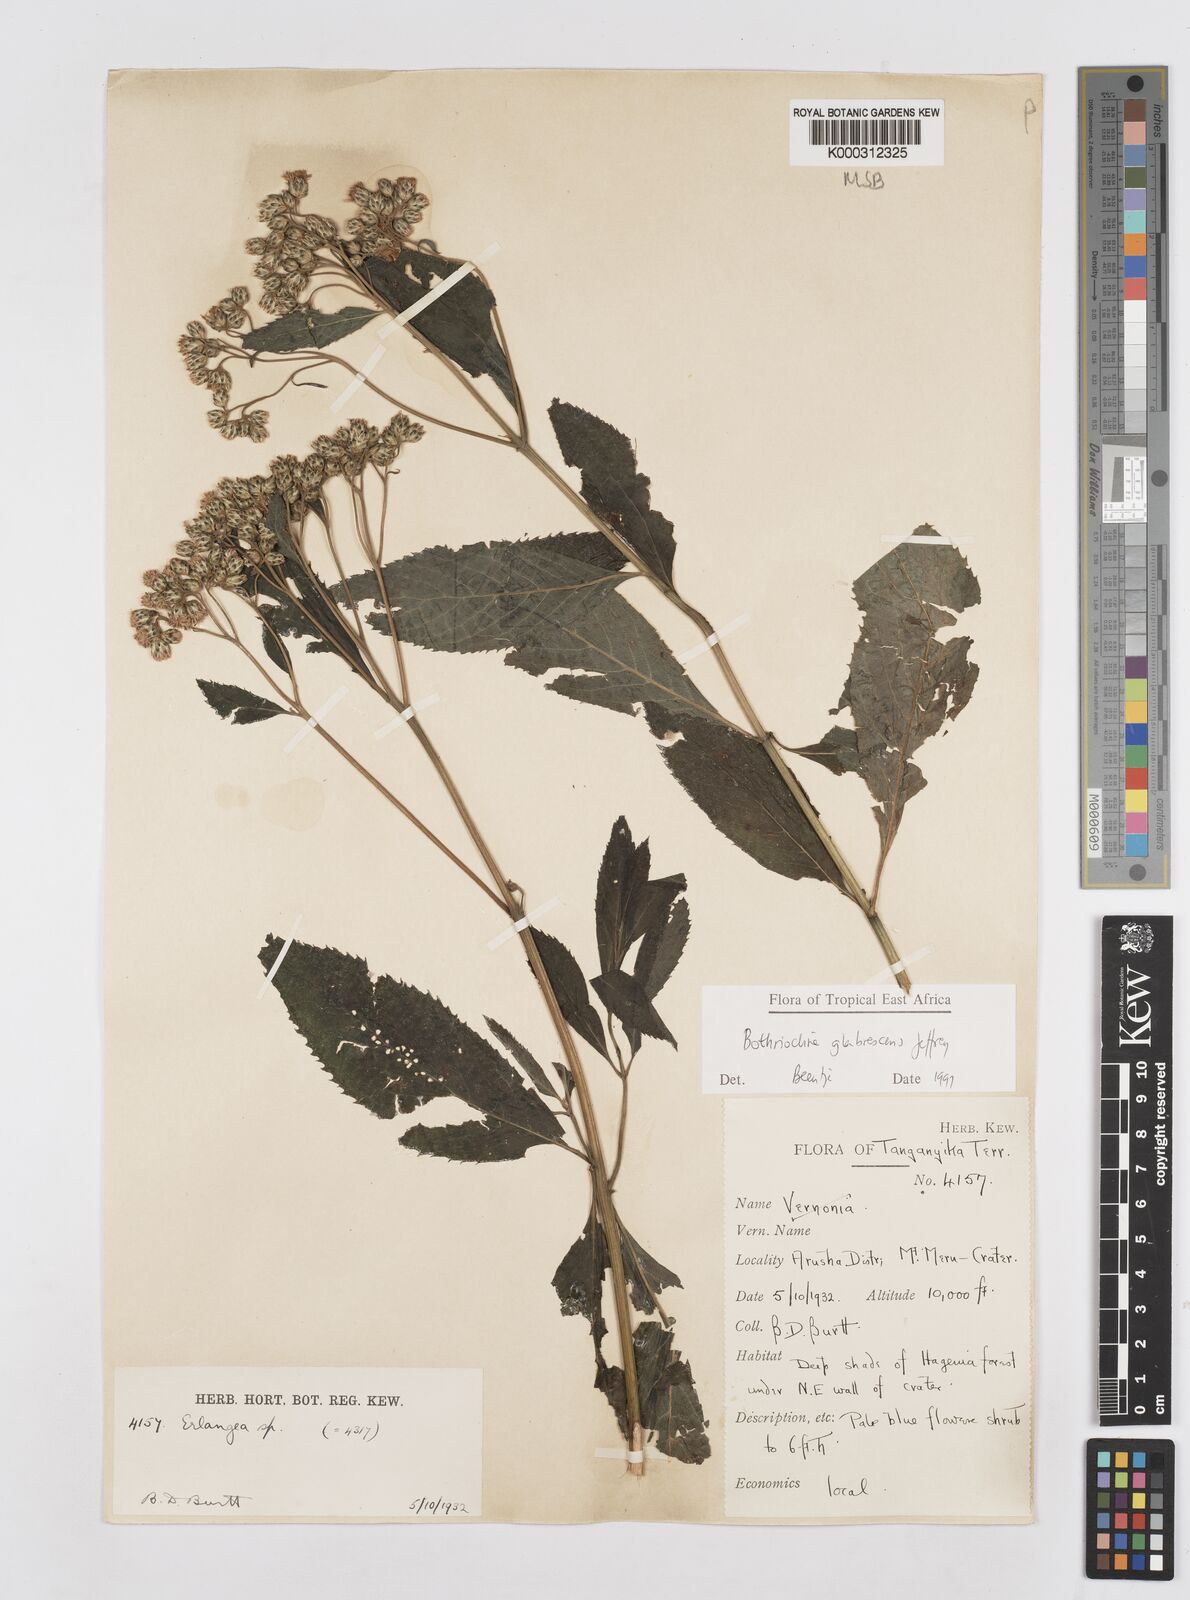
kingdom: Plantae
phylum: Tracheophyta
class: Magnoliopsida
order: Asterales
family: Asteraceae
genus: Bothriocline
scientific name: Bothriocline glabrescens
